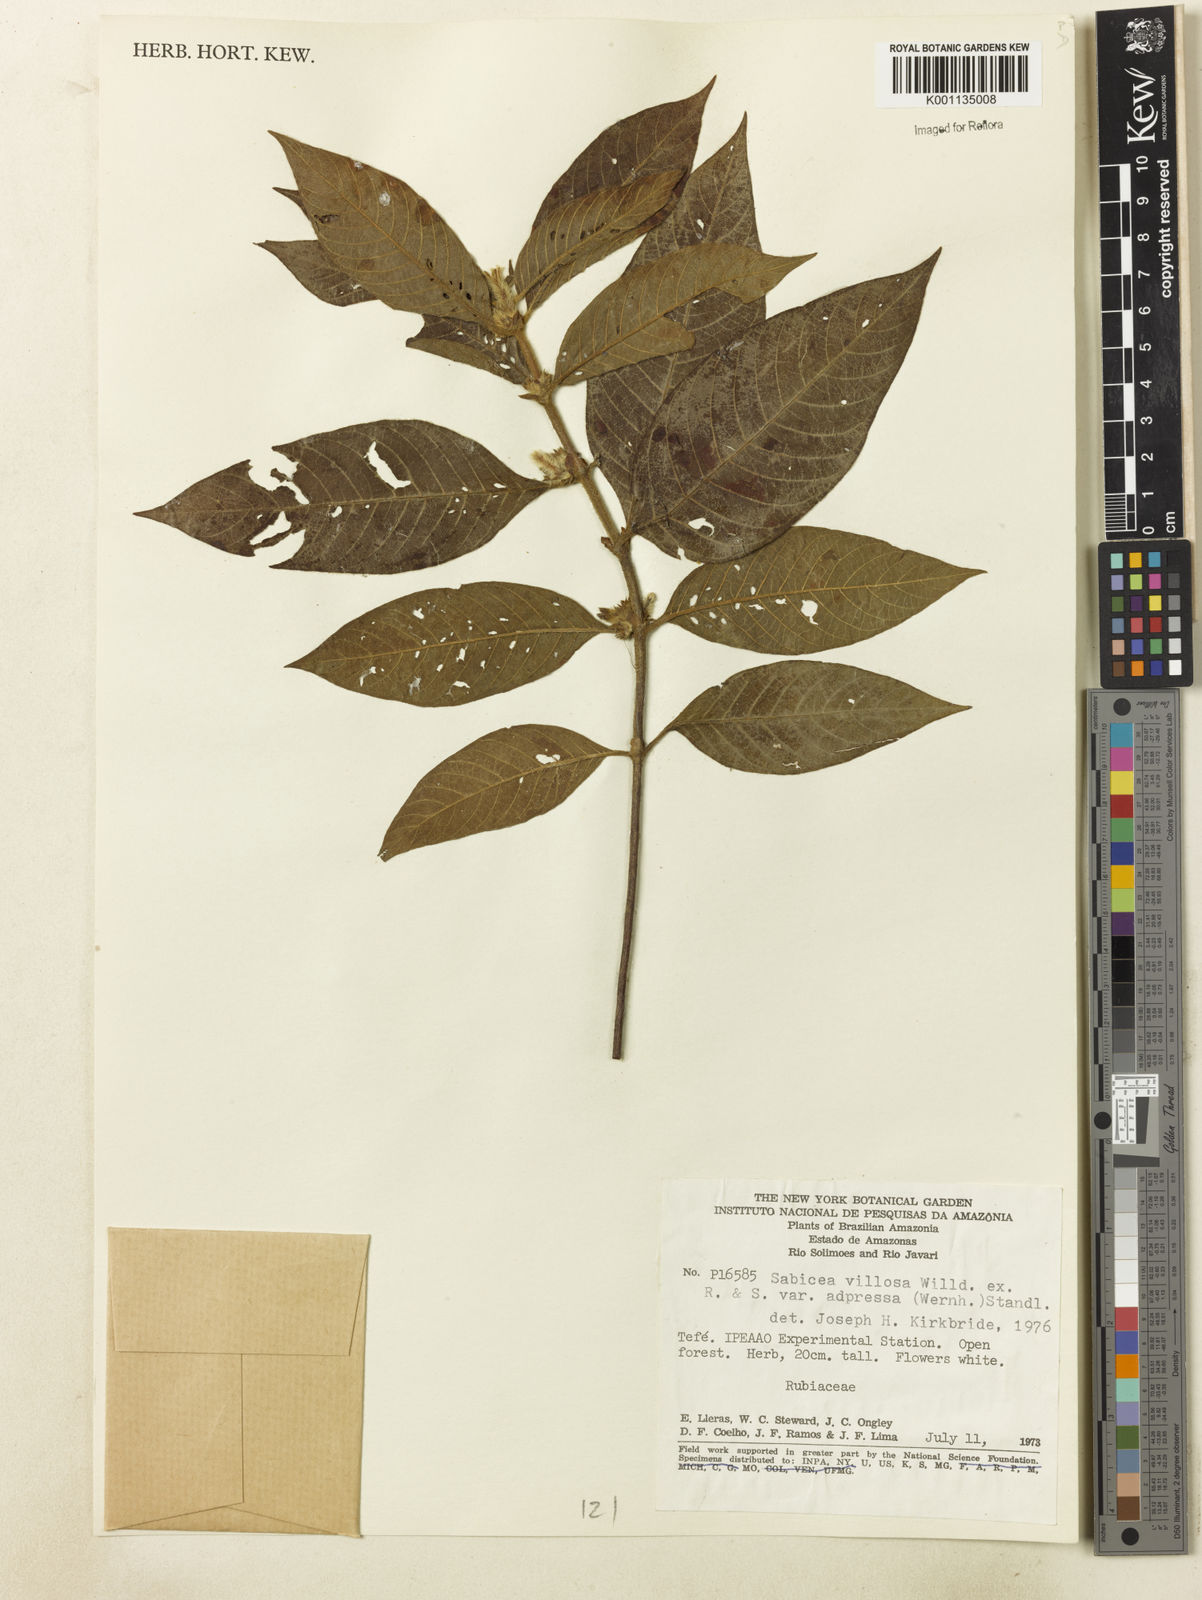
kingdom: Plantae
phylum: Tracheophyta
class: Magnoliopsida
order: Gentianales
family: Rubiaceae
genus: Sabicea
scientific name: Sabicea villosa
